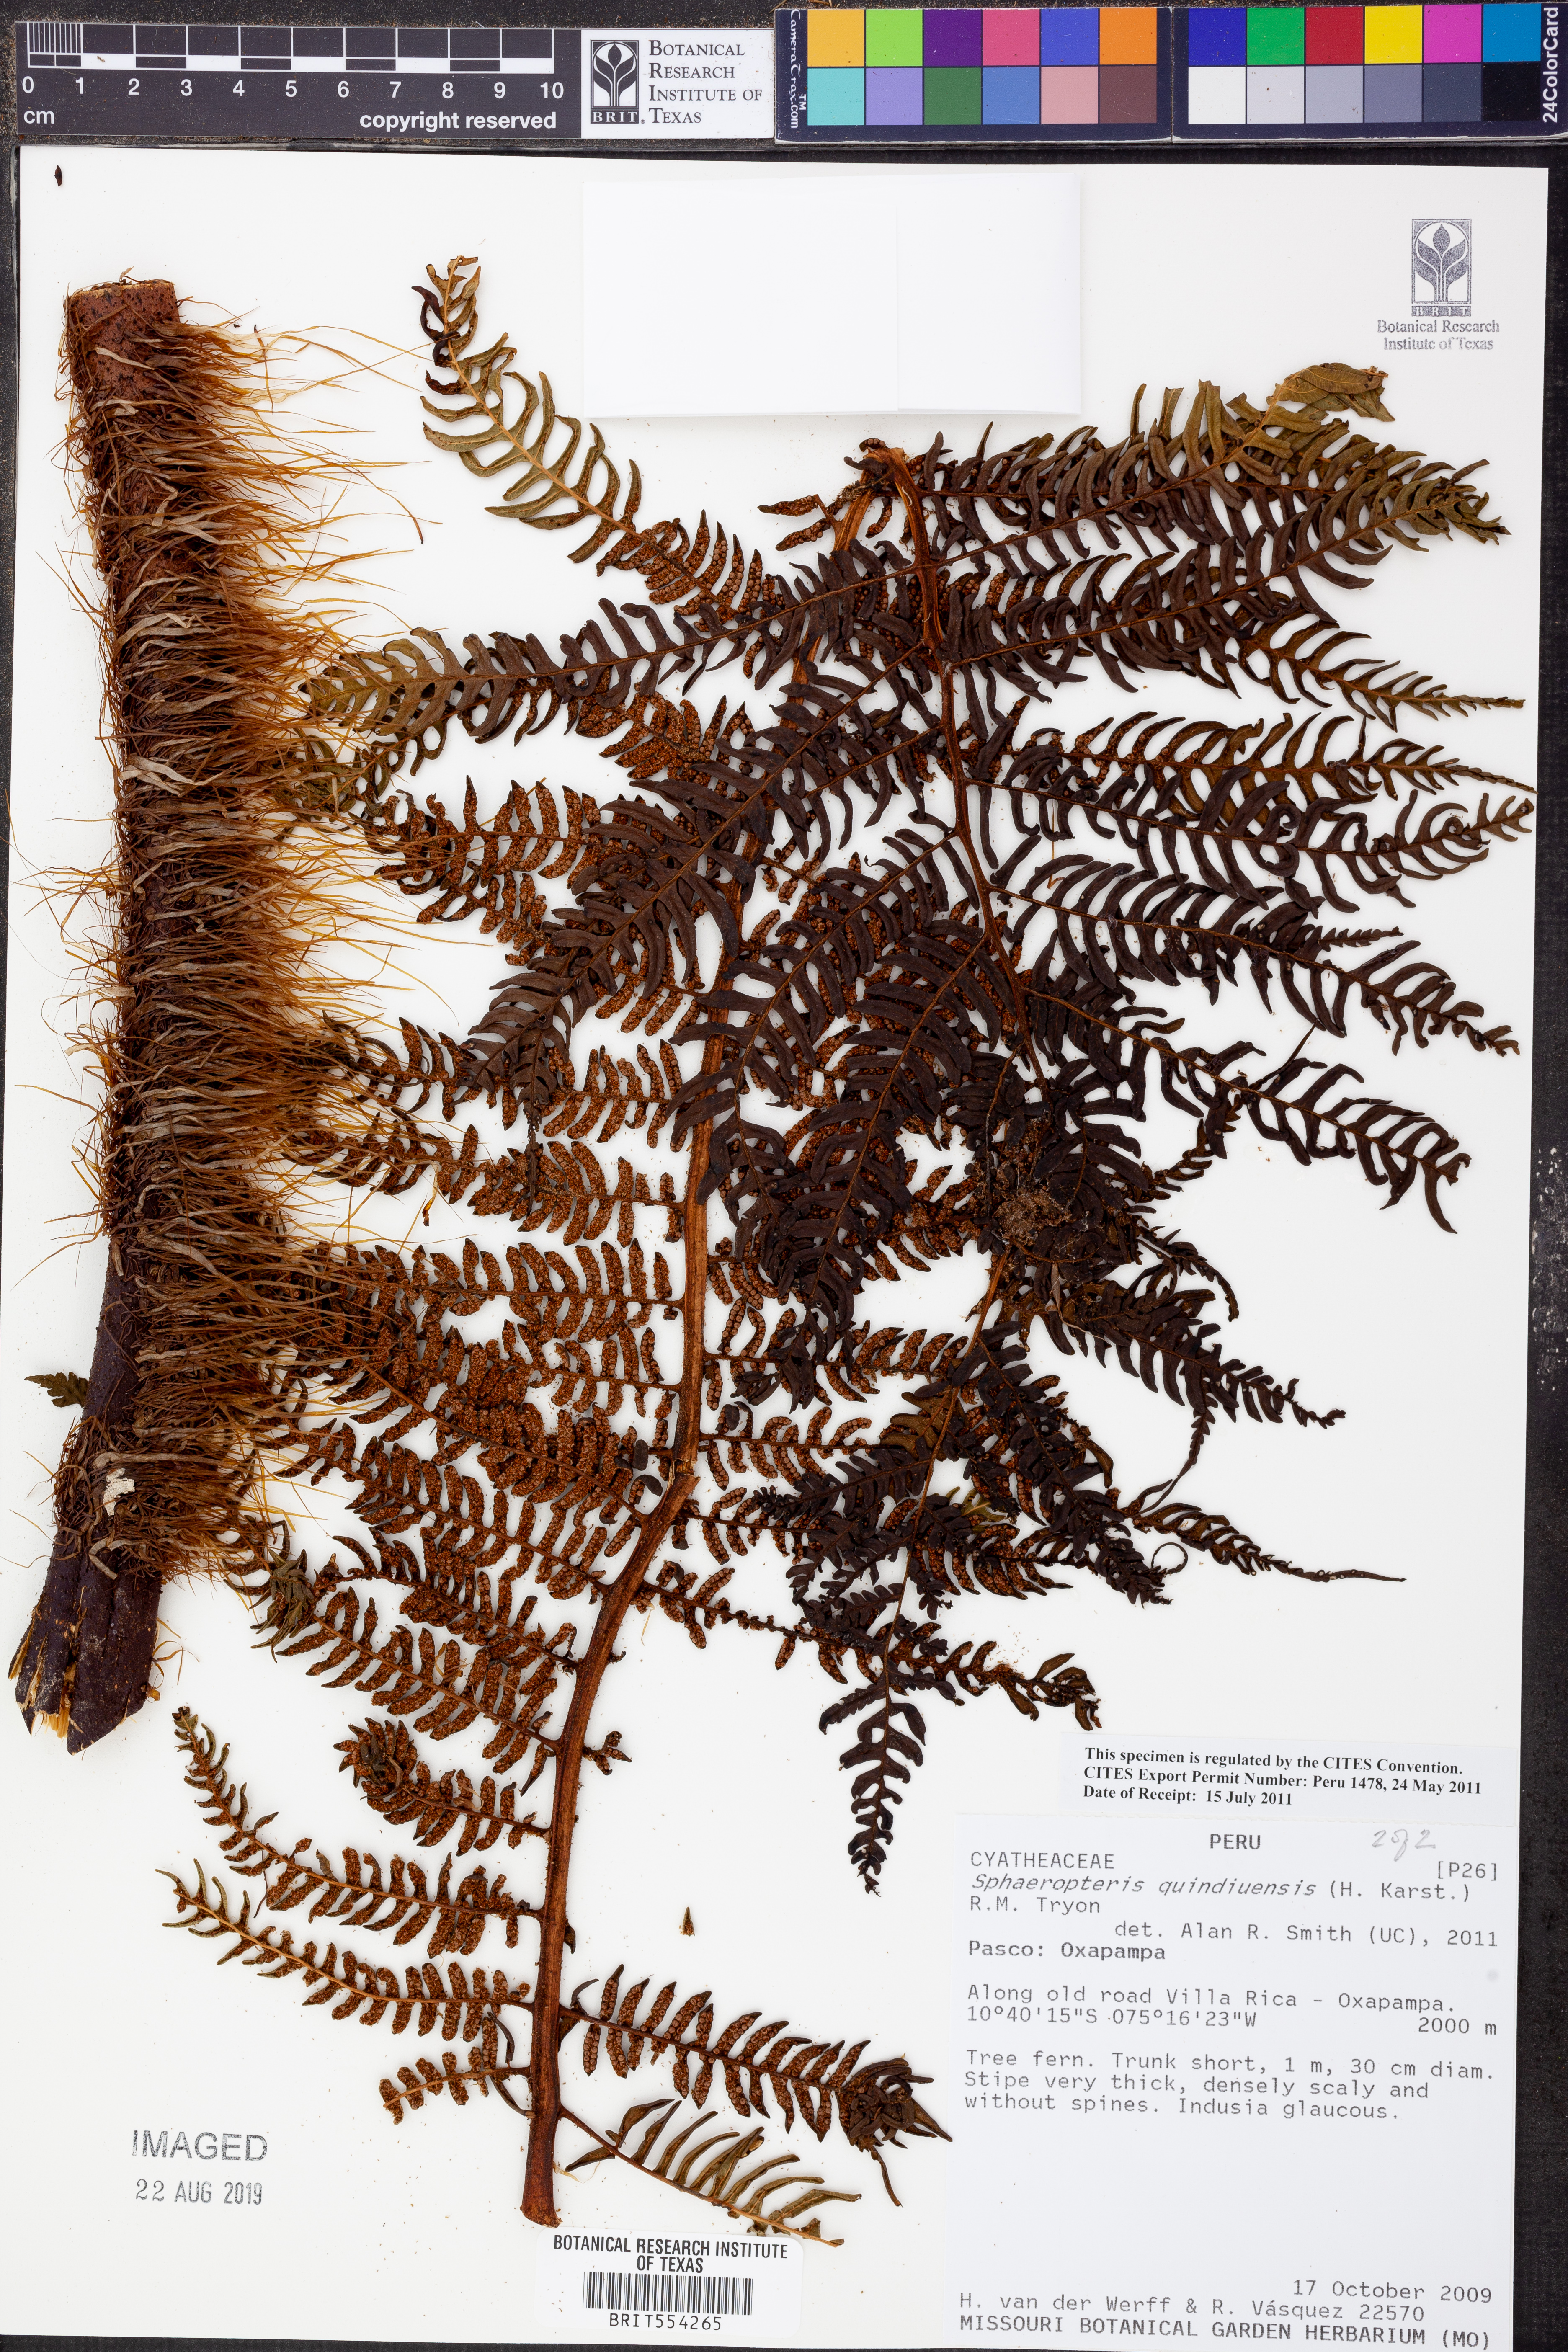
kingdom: Plantae
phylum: Tracheophyta
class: Polypodiopsida
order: Cyatheales
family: Cyatheaceae
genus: Sphaeropteris
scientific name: Sphaeropteris quindiuensis
